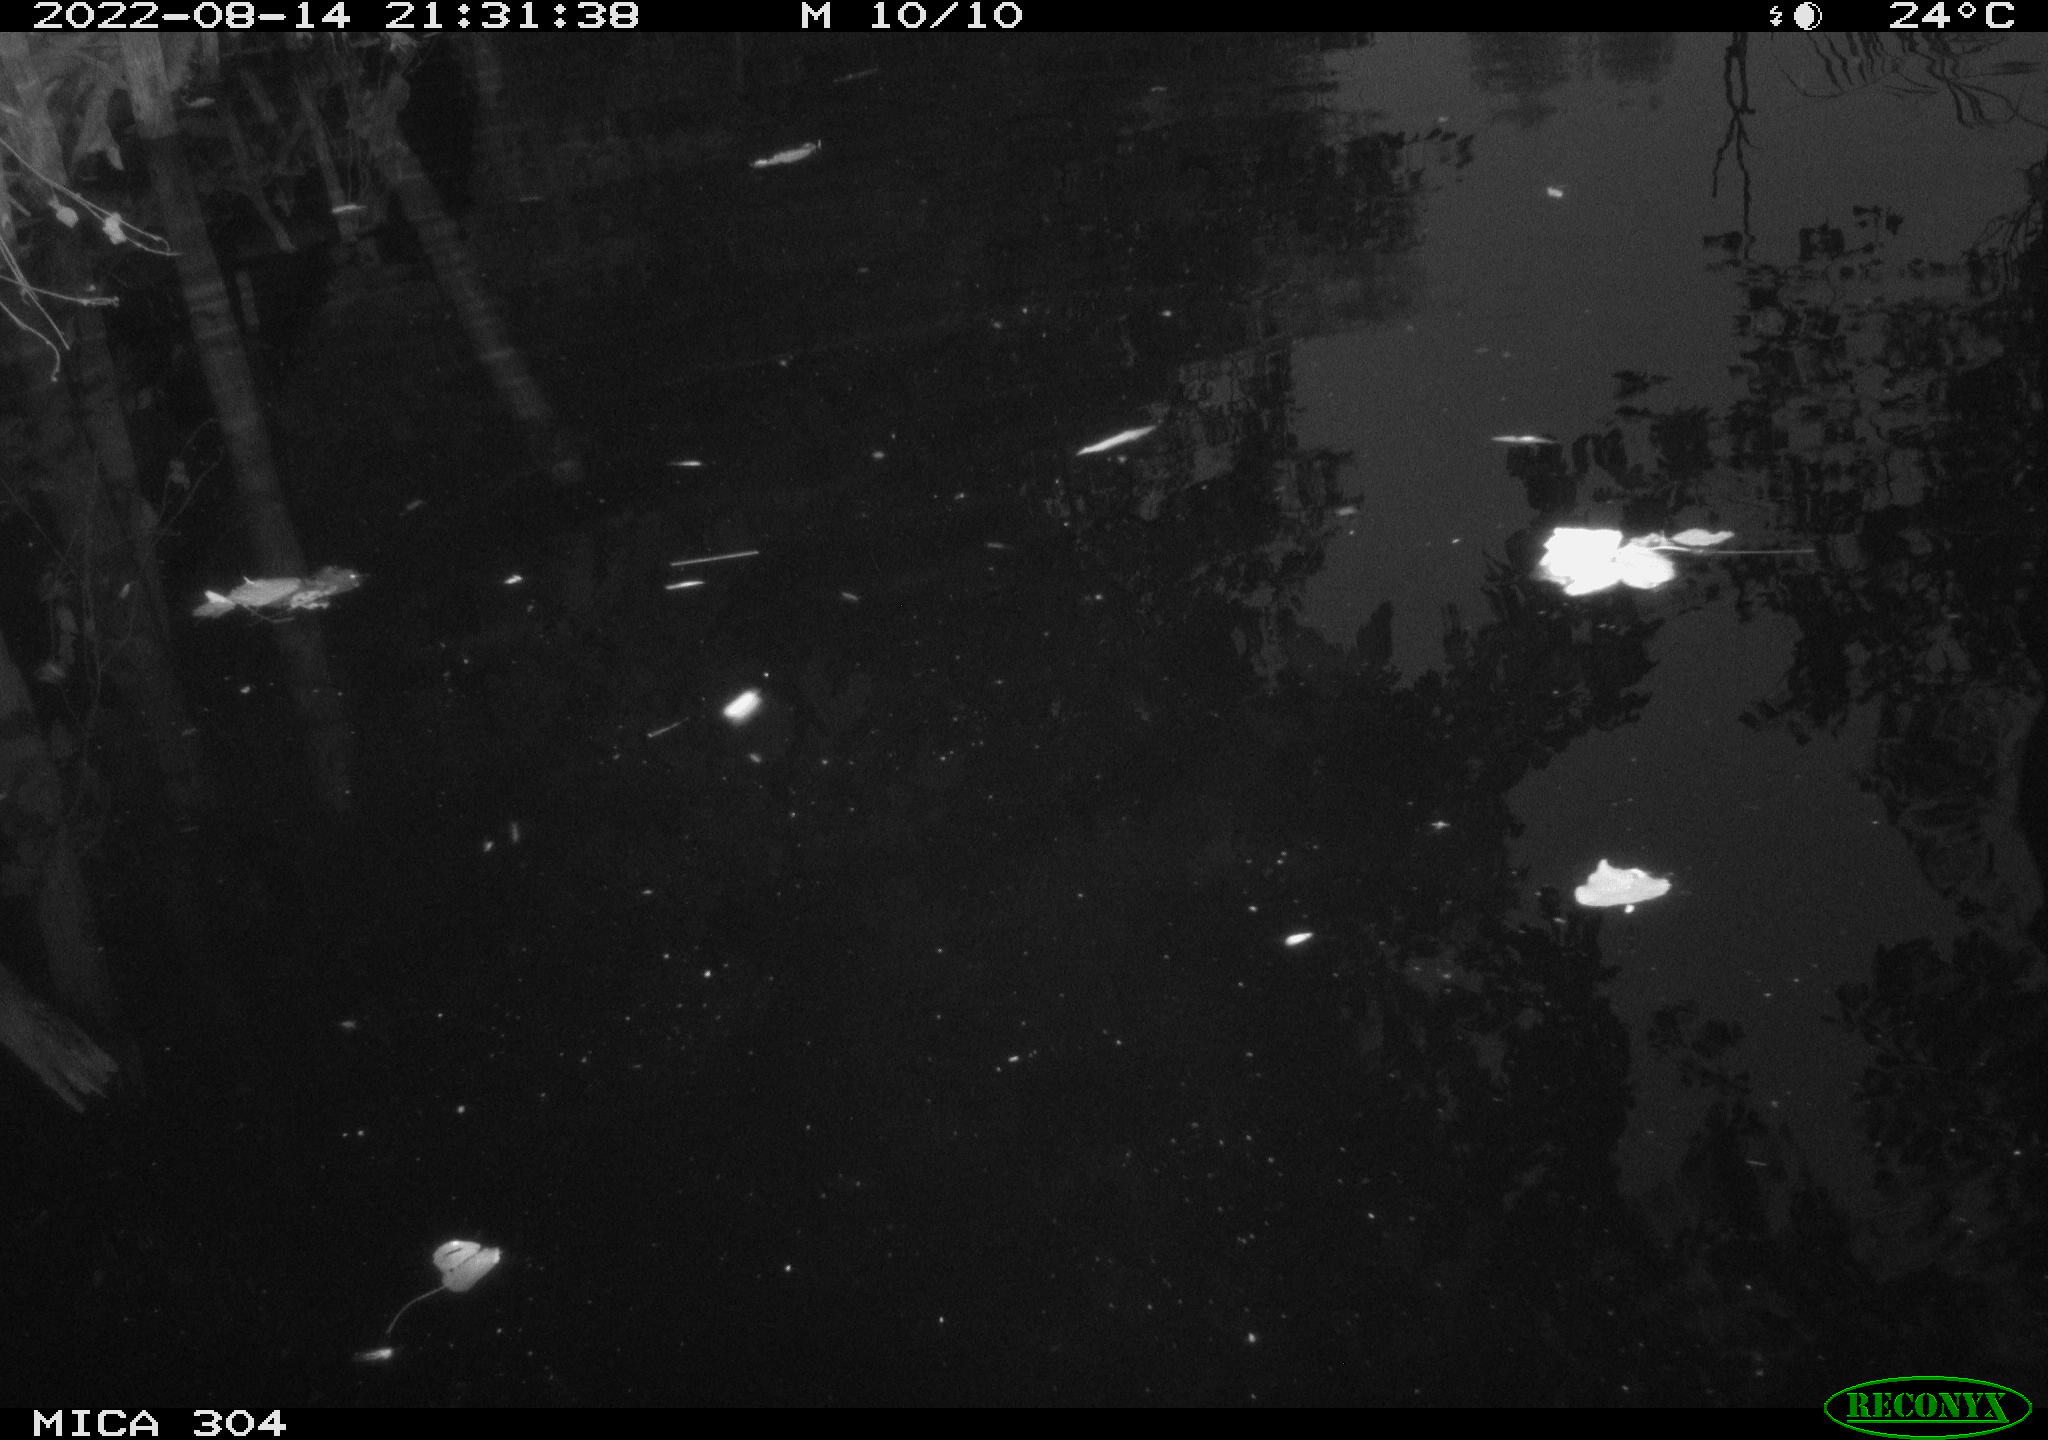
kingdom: Animalia
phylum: Chordata
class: Mammalia
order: Rodentia
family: Muridae
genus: Rattus
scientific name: Rattus norvegicus
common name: Brown rat
